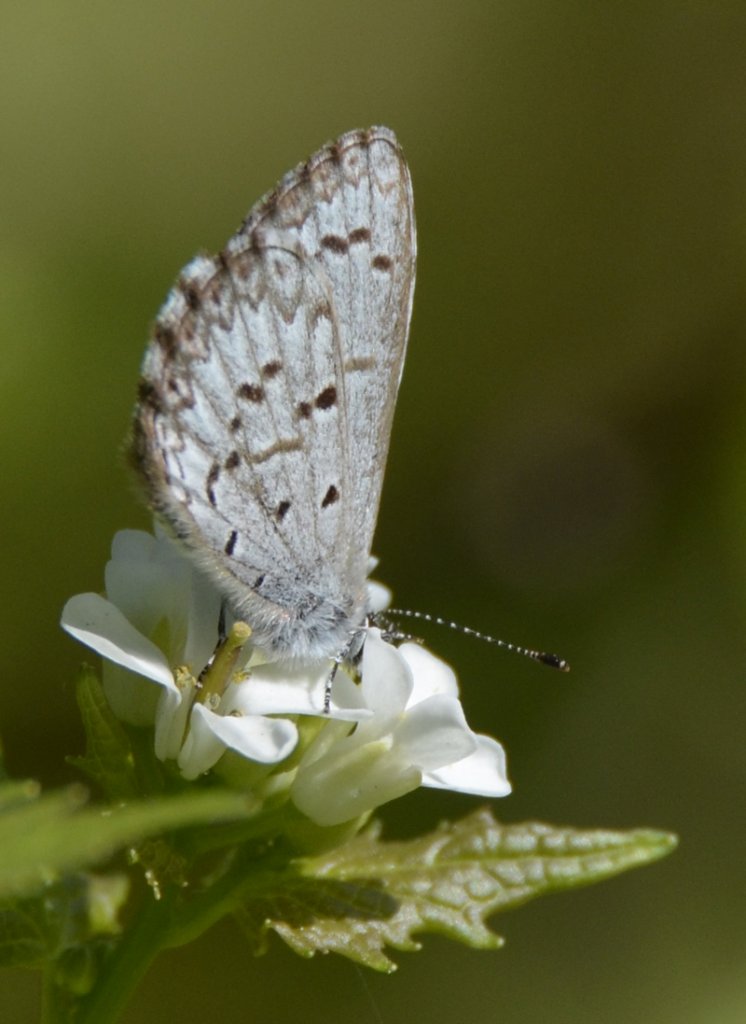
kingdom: Animalia
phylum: Arthropoda
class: Insecta
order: Lepidoptera
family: Lycaenidae
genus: Celastrina
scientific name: Celastrina lucia
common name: Northern Spring Azure
